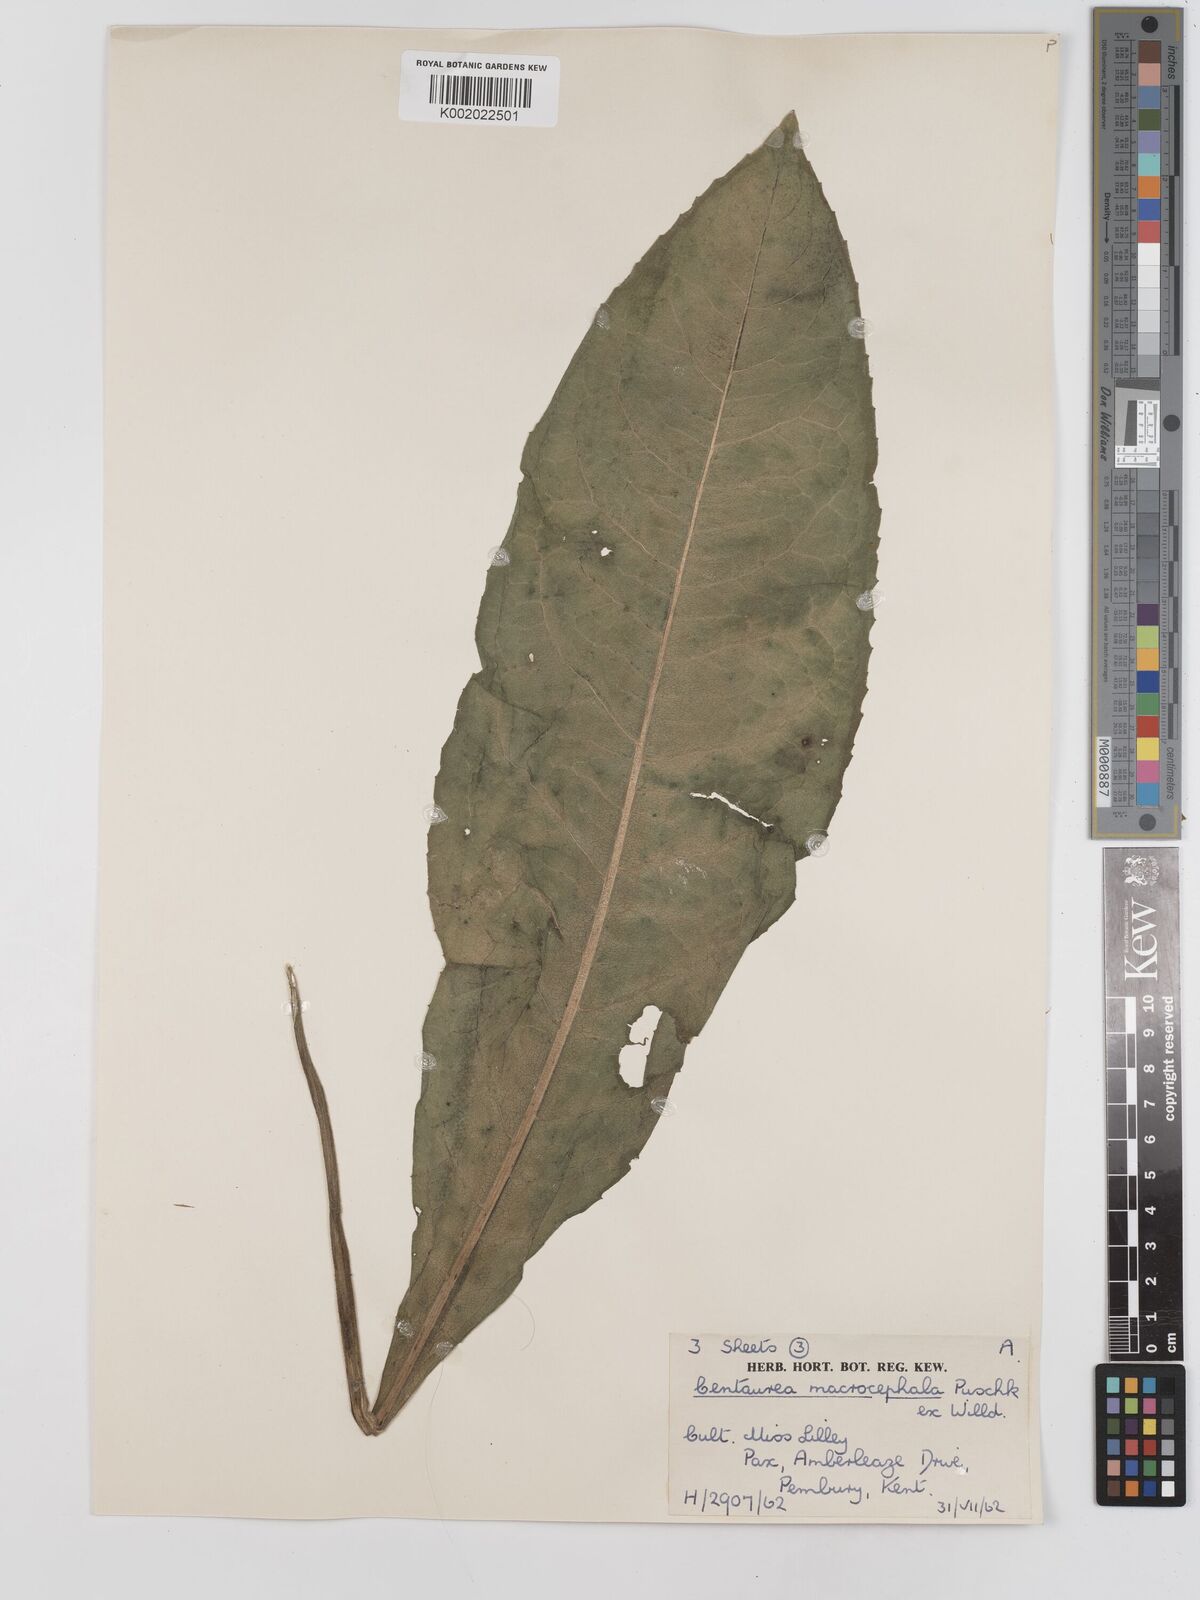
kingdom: Plantae
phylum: Tracheophyta
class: Magnoliopsida
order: Asterales
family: Asteraceae
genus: Centaurea
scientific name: Centaurea macrocephala
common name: Big-head knapweed
